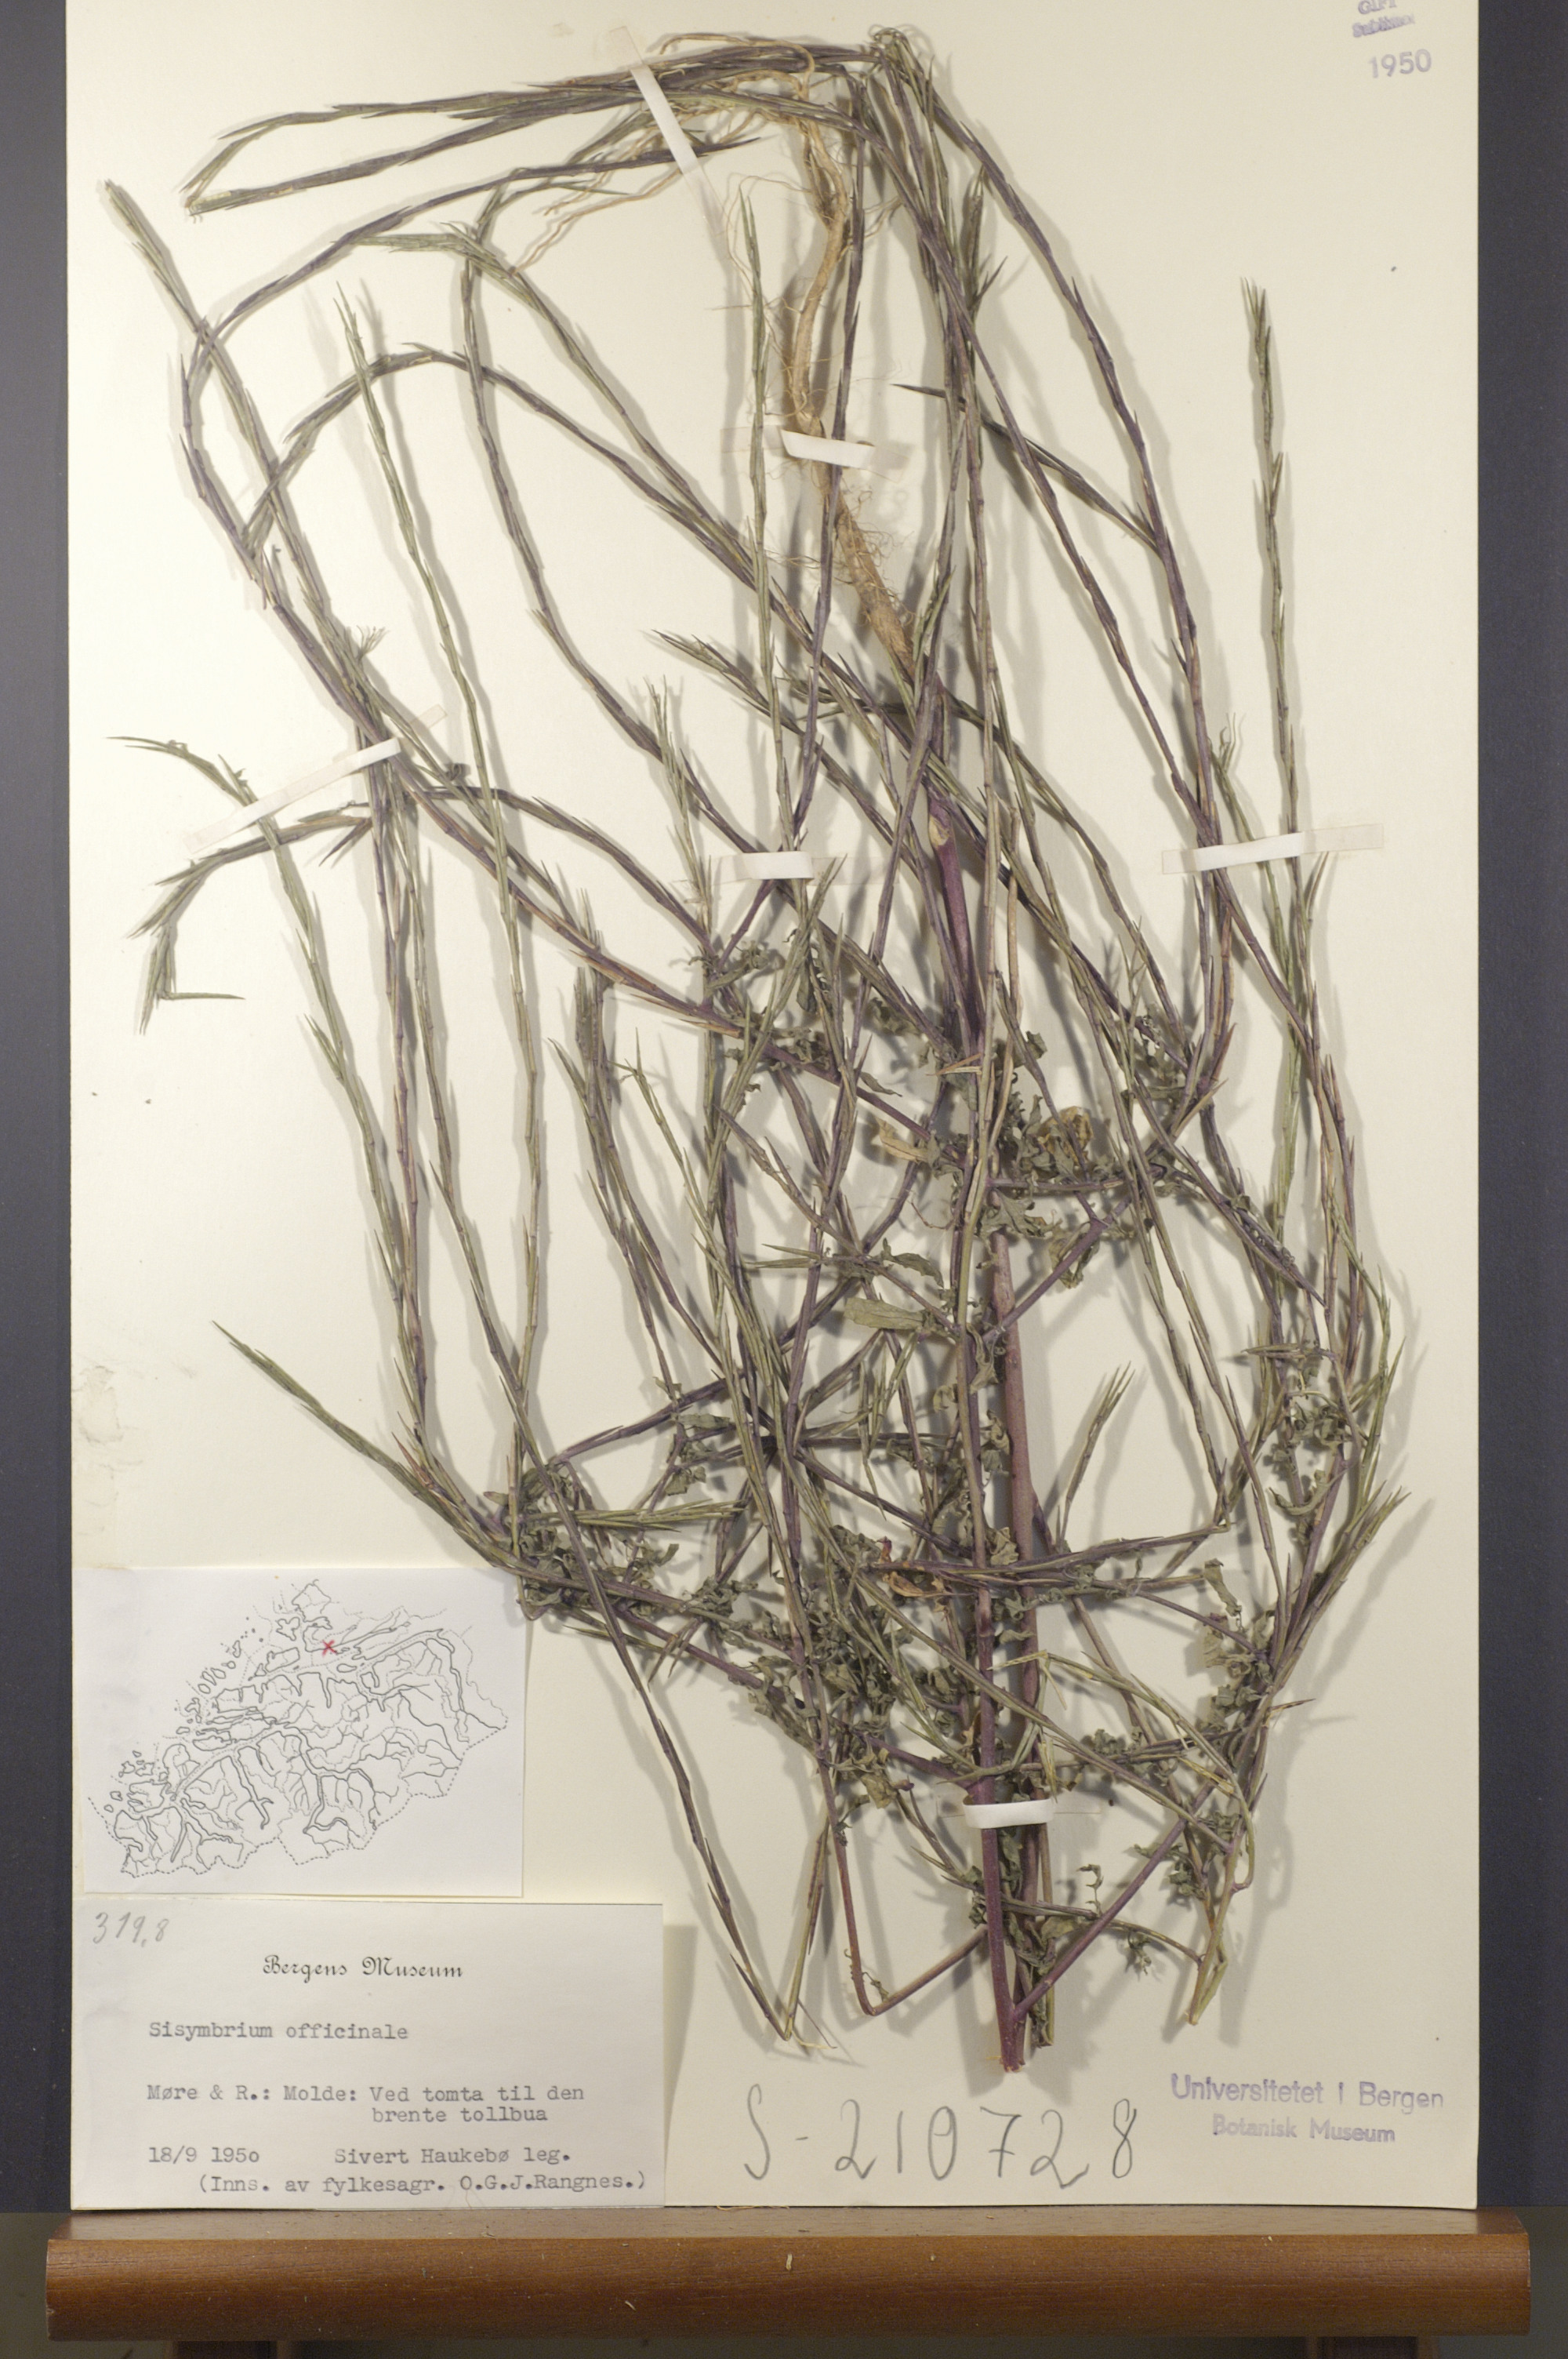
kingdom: Plantae
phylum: Tracheophyta
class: Magnoliopsida
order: Brassicales
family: Brassicaceae
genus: Sisymbrium
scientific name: Sisymbrium officinale
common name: Hedge mustard
